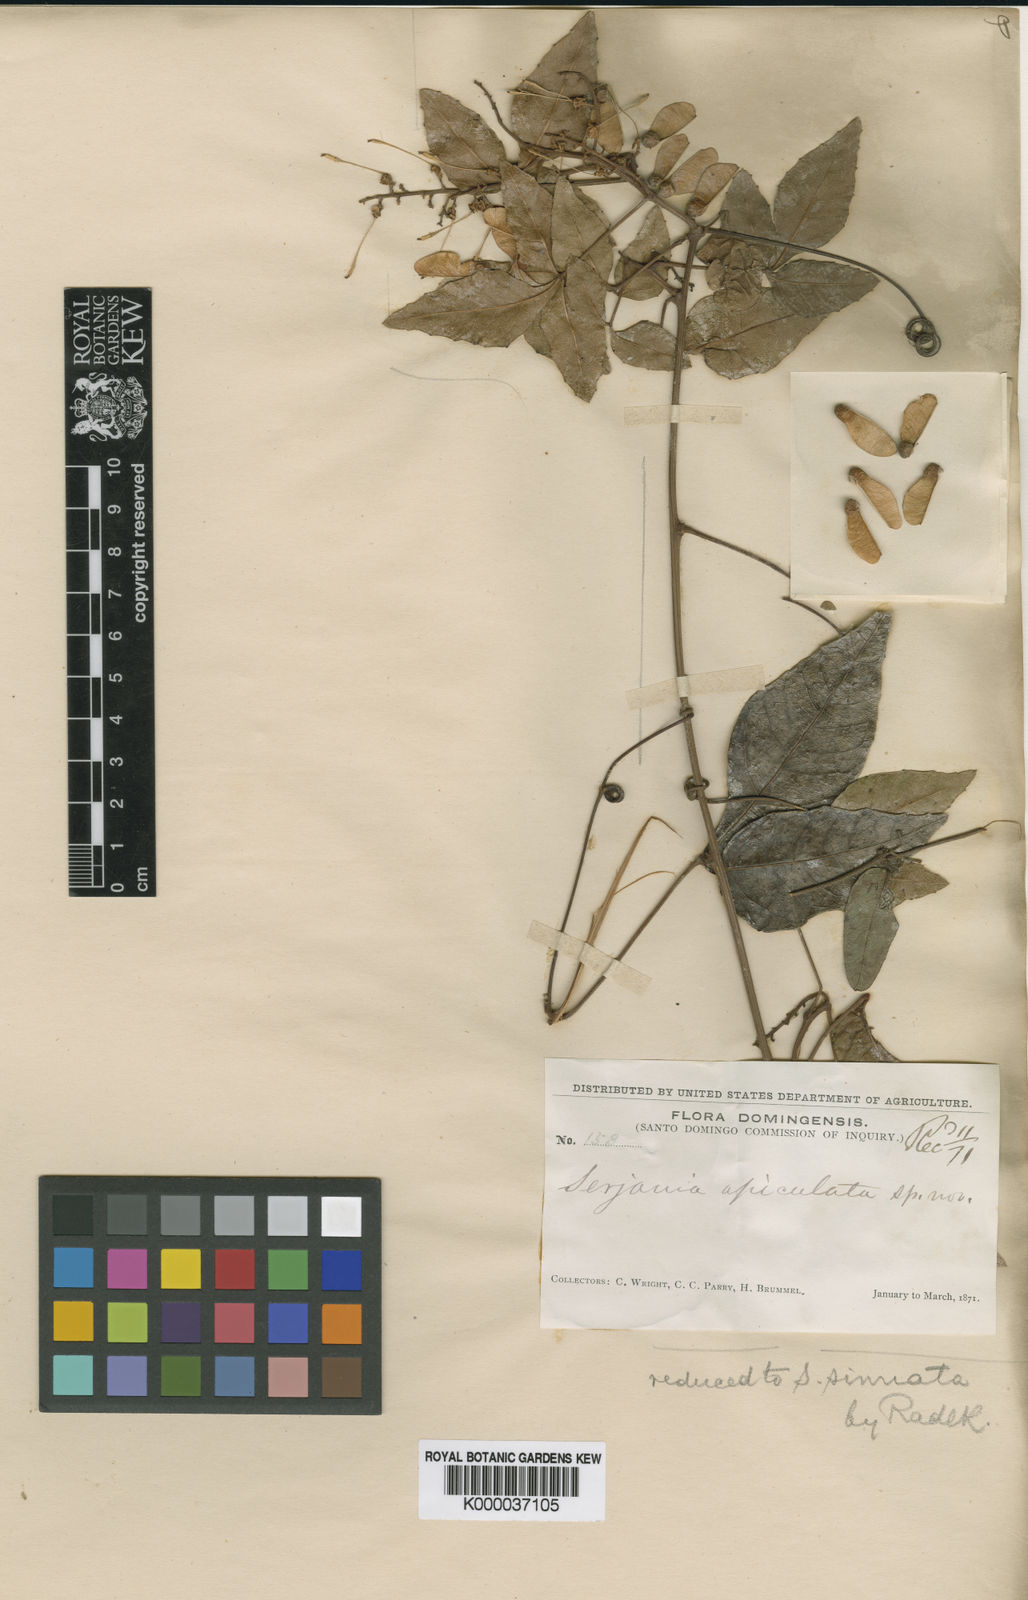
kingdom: Plantae
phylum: Tracheophyta
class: Magnoliopsida
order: Sapindales
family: Sapindaceae
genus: Serjania
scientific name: Serjania
